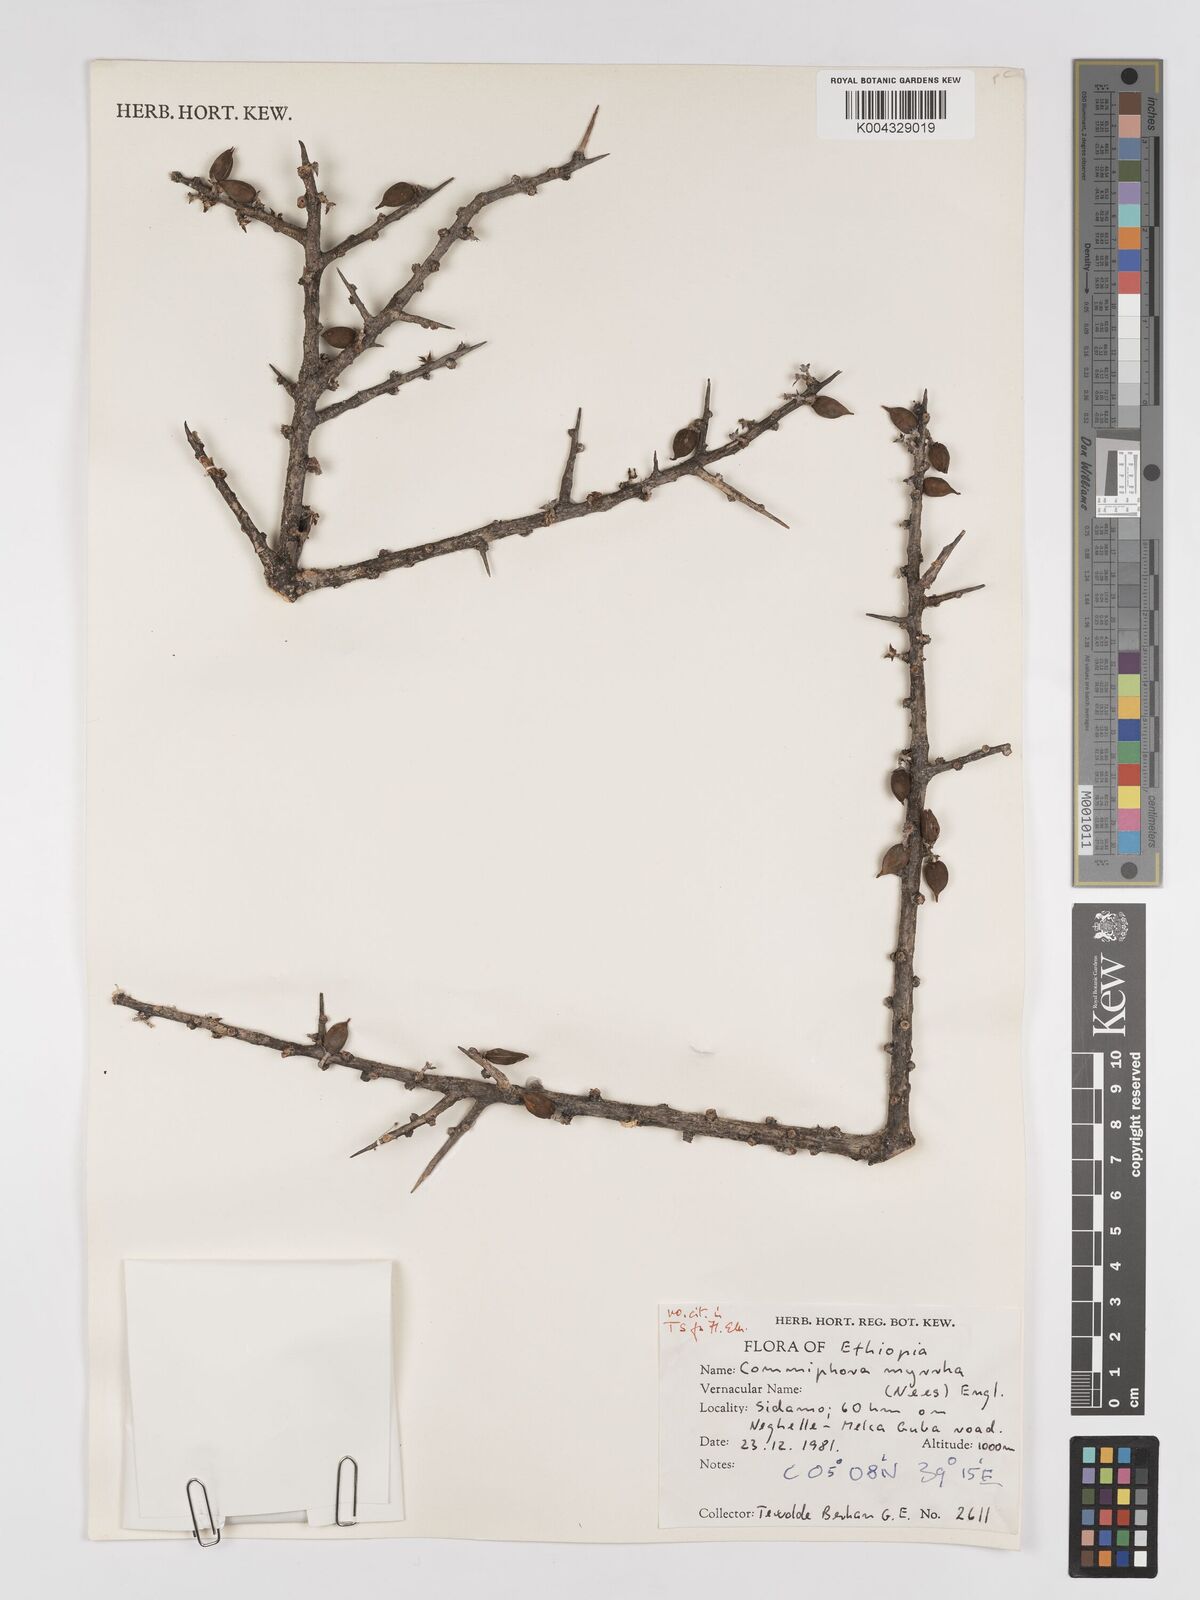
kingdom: Plantae
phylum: Tracheophyta
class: Magnoliopsida
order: Sapindales
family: Burseraceae
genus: Commiphora
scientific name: Commiphora myrrha
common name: African myrrh
